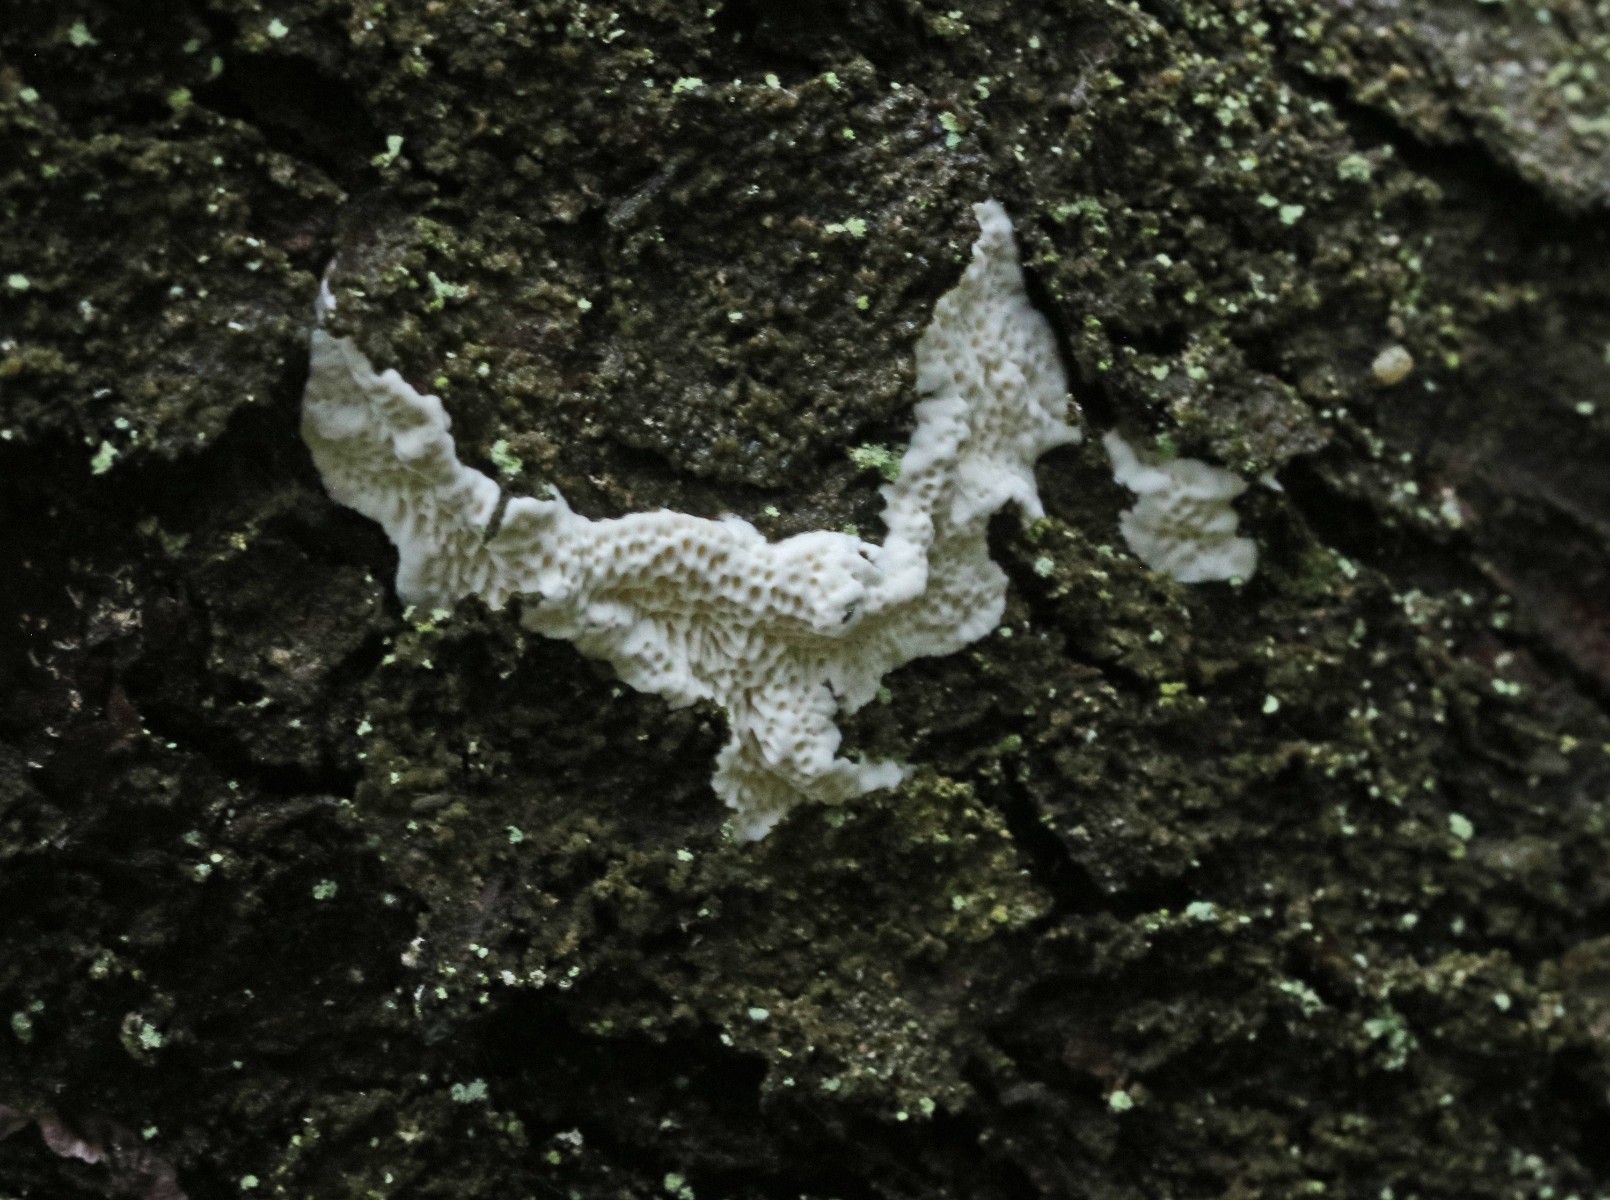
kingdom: Fungi
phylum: Basidiomycota
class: Agaricomycetes
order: Polyporales
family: Fomitopsidaceae
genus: Fomitopsis
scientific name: Fomitopsis
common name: fyrre-skiveporesvamp
